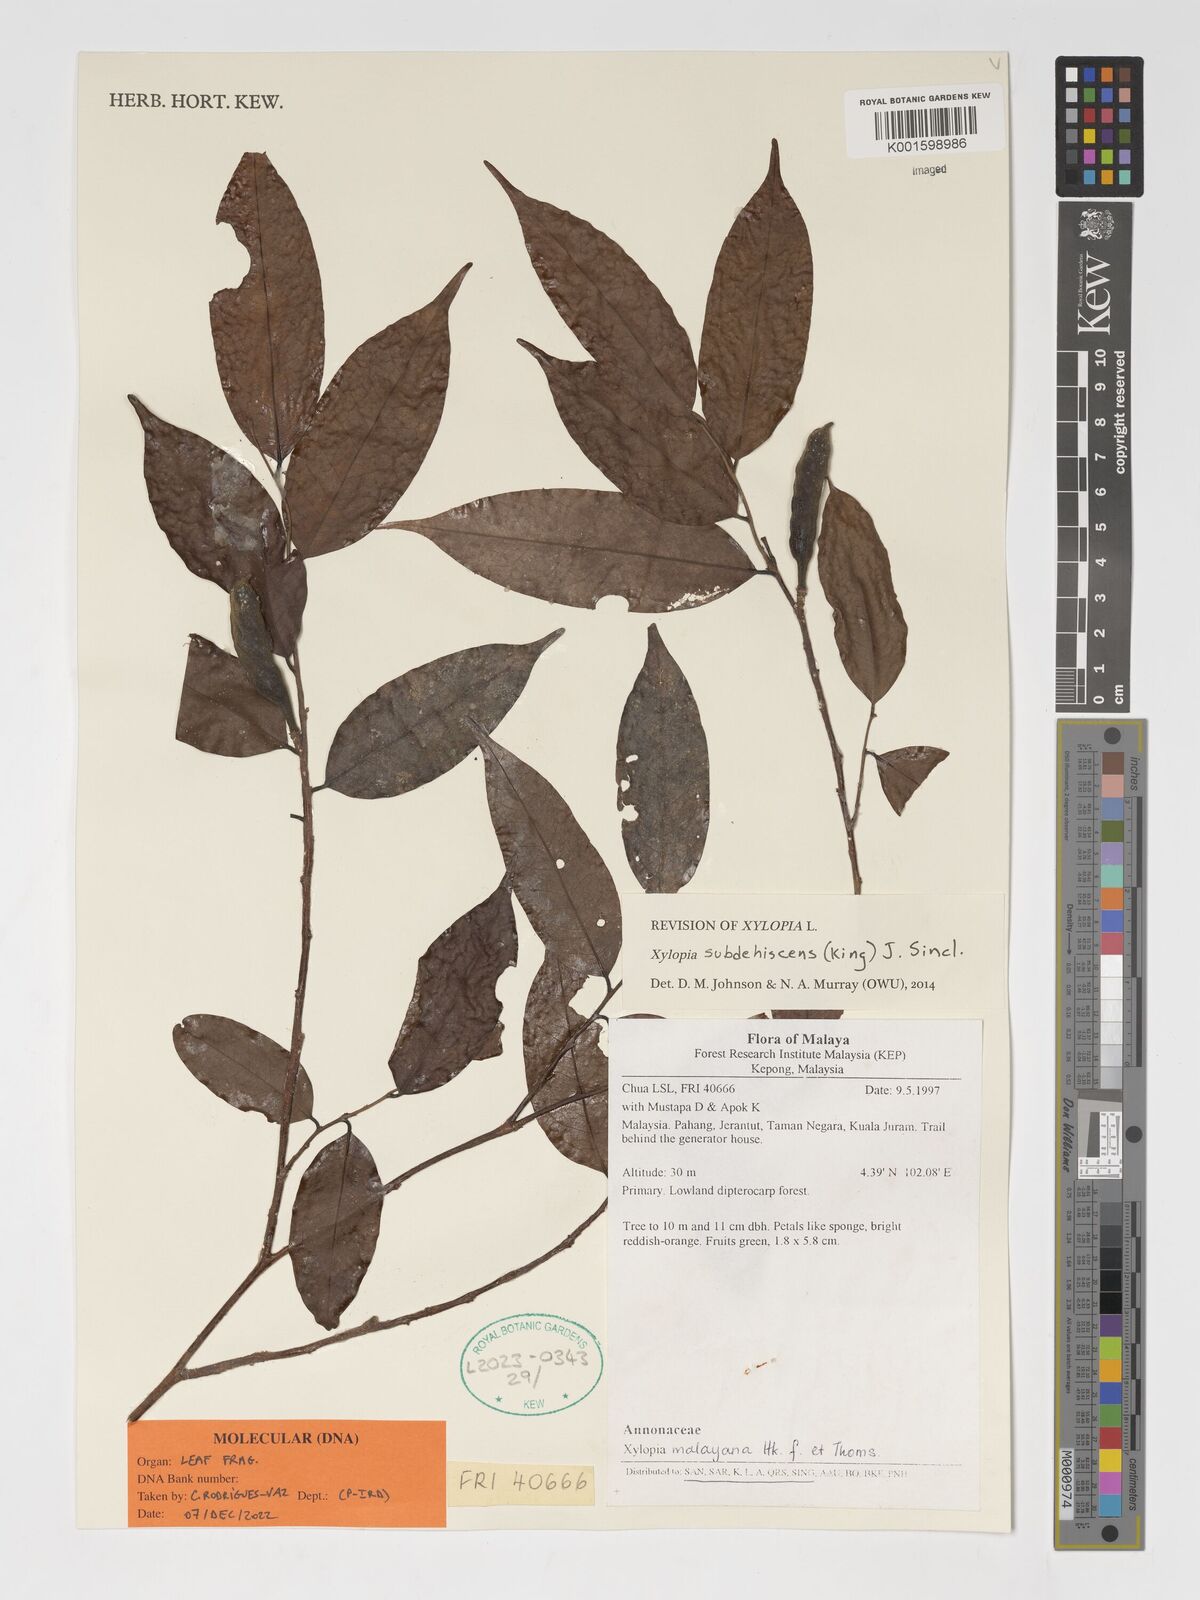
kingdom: Plantae
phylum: Tracheophyta
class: Magnoliopsida
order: Magnoliales
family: Annonaceae
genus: Xylopia
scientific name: Xylopia subdehiscens
